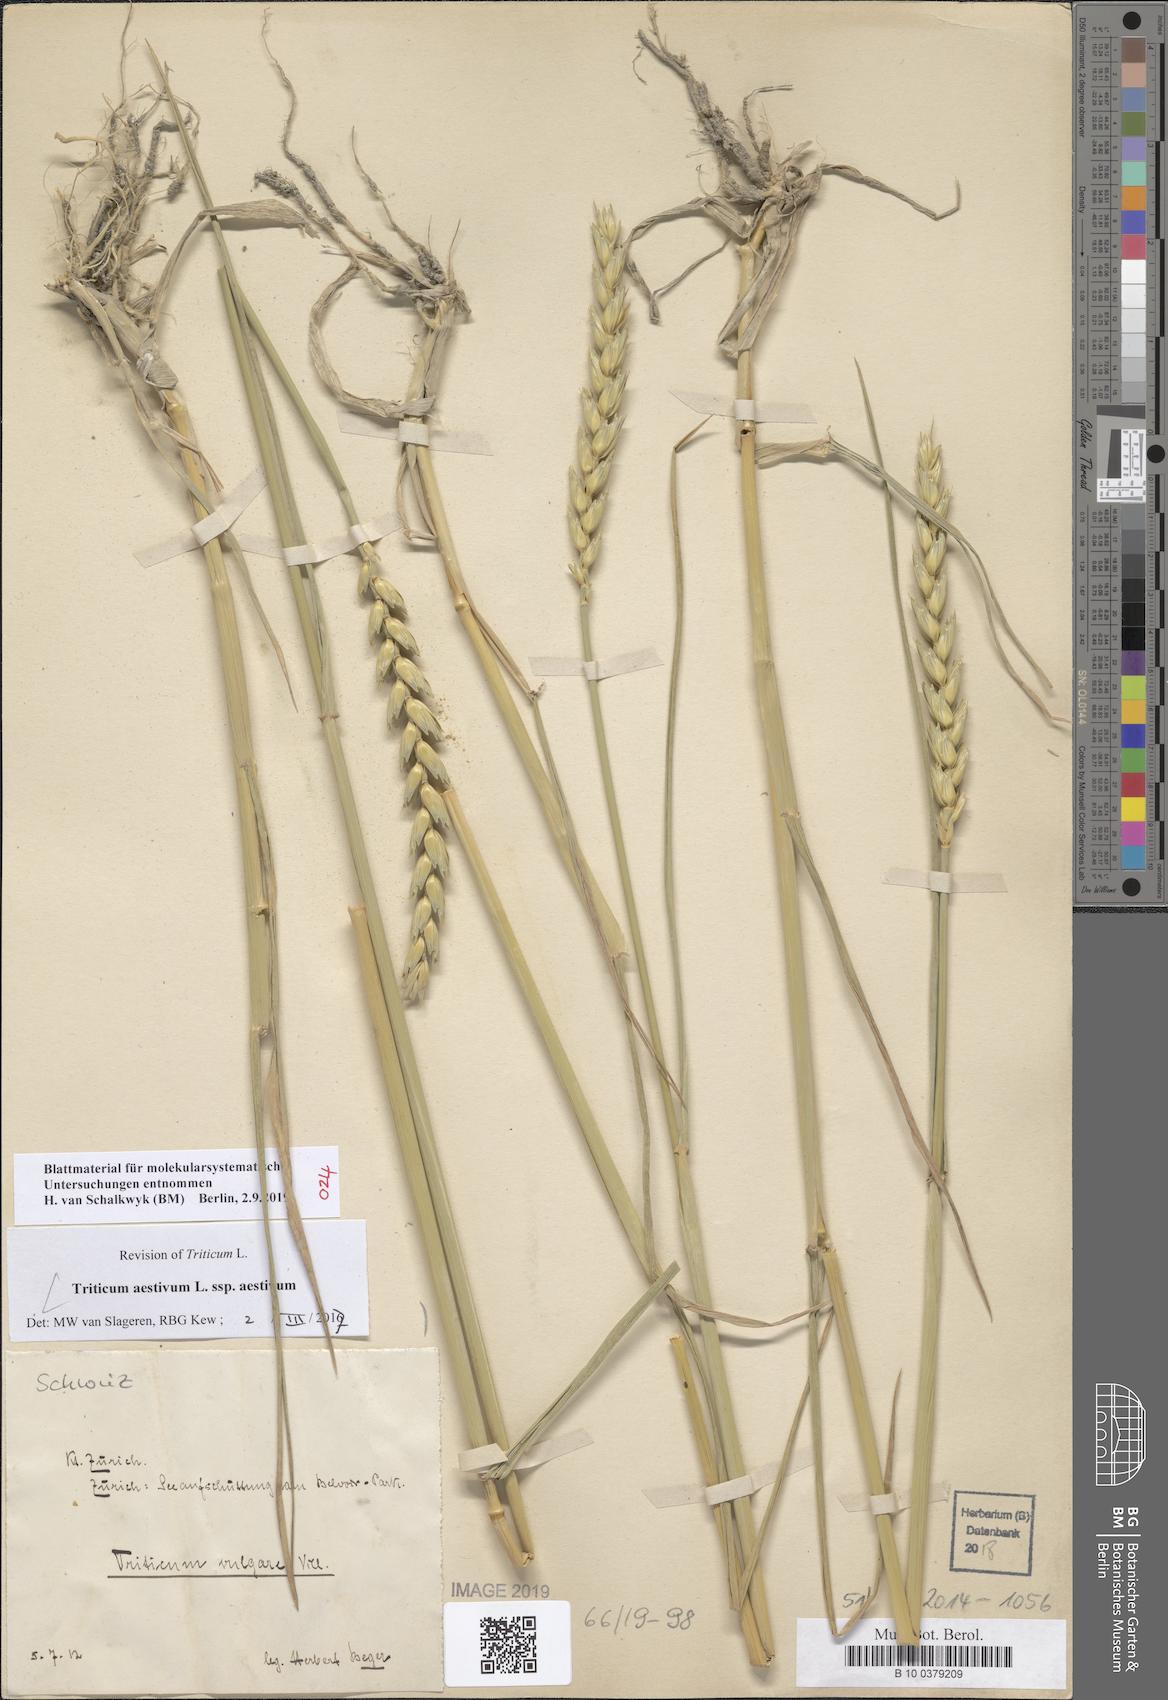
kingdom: Plantae
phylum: Tracheophyta
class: Liliopsida
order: Poales
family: Poaceae
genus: Triticum
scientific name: Triticum aestivum
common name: Common wheat
